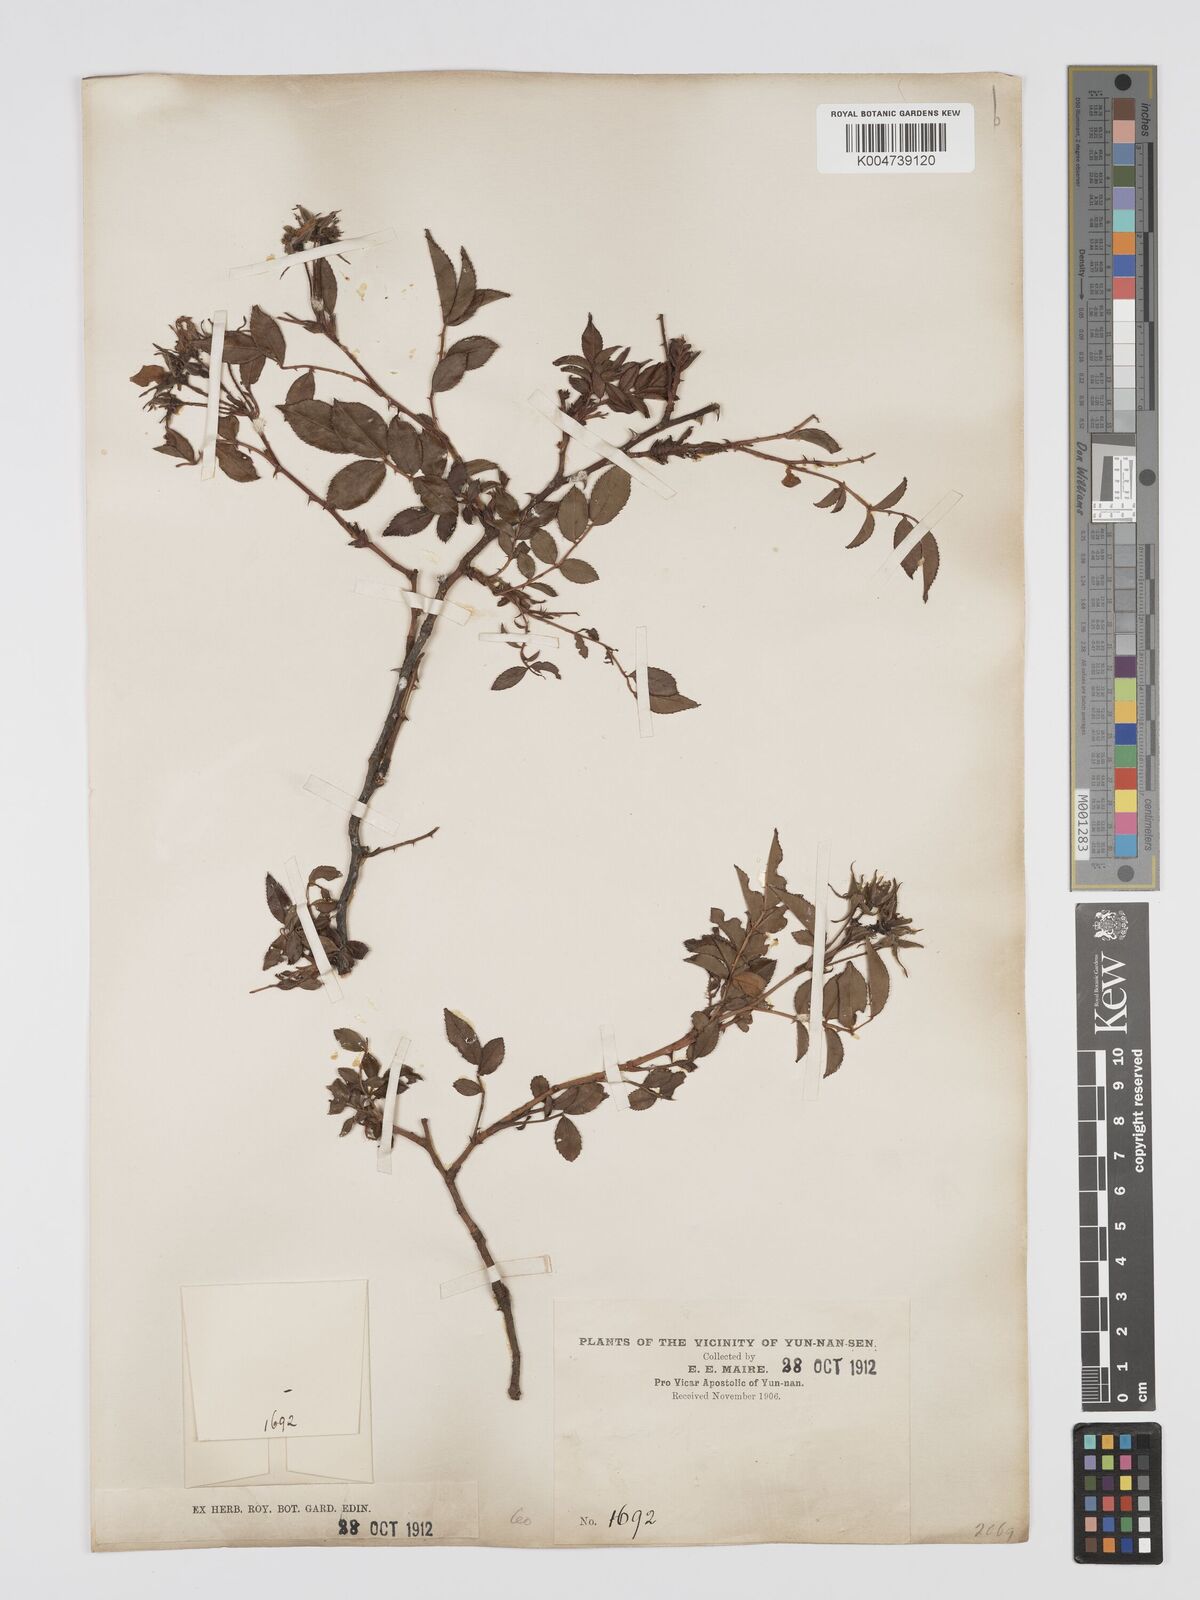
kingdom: Plantae
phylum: Tracheophyta
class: Magnoliopsida
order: Rosales
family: Rosaceae
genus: Rosa
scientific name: Rosa longicuspis
